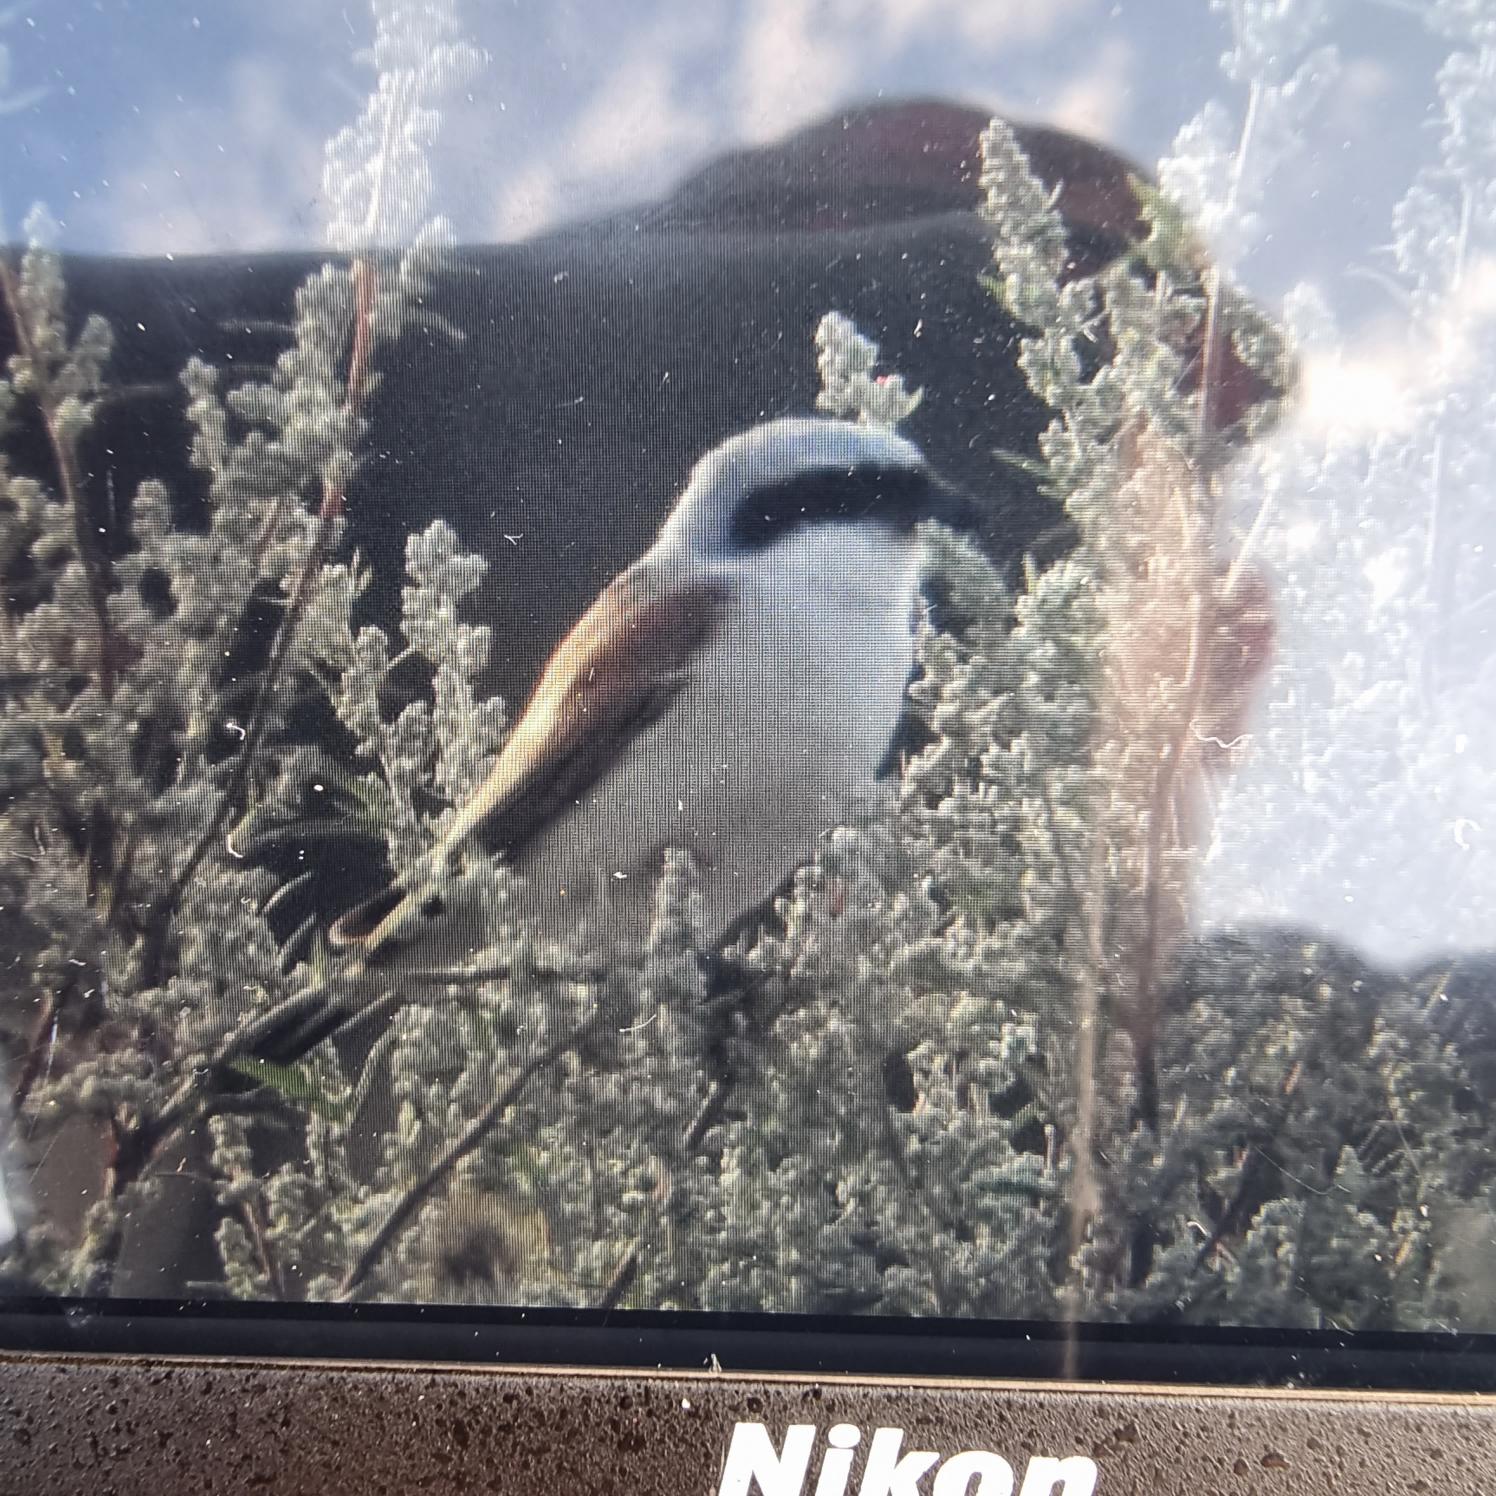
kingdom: Animalia
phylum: Chordata
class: Aves
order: Passeriformes
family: Laniidae
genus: Lanius
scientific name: Lanius collurio
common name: Rødrygget tornskade
